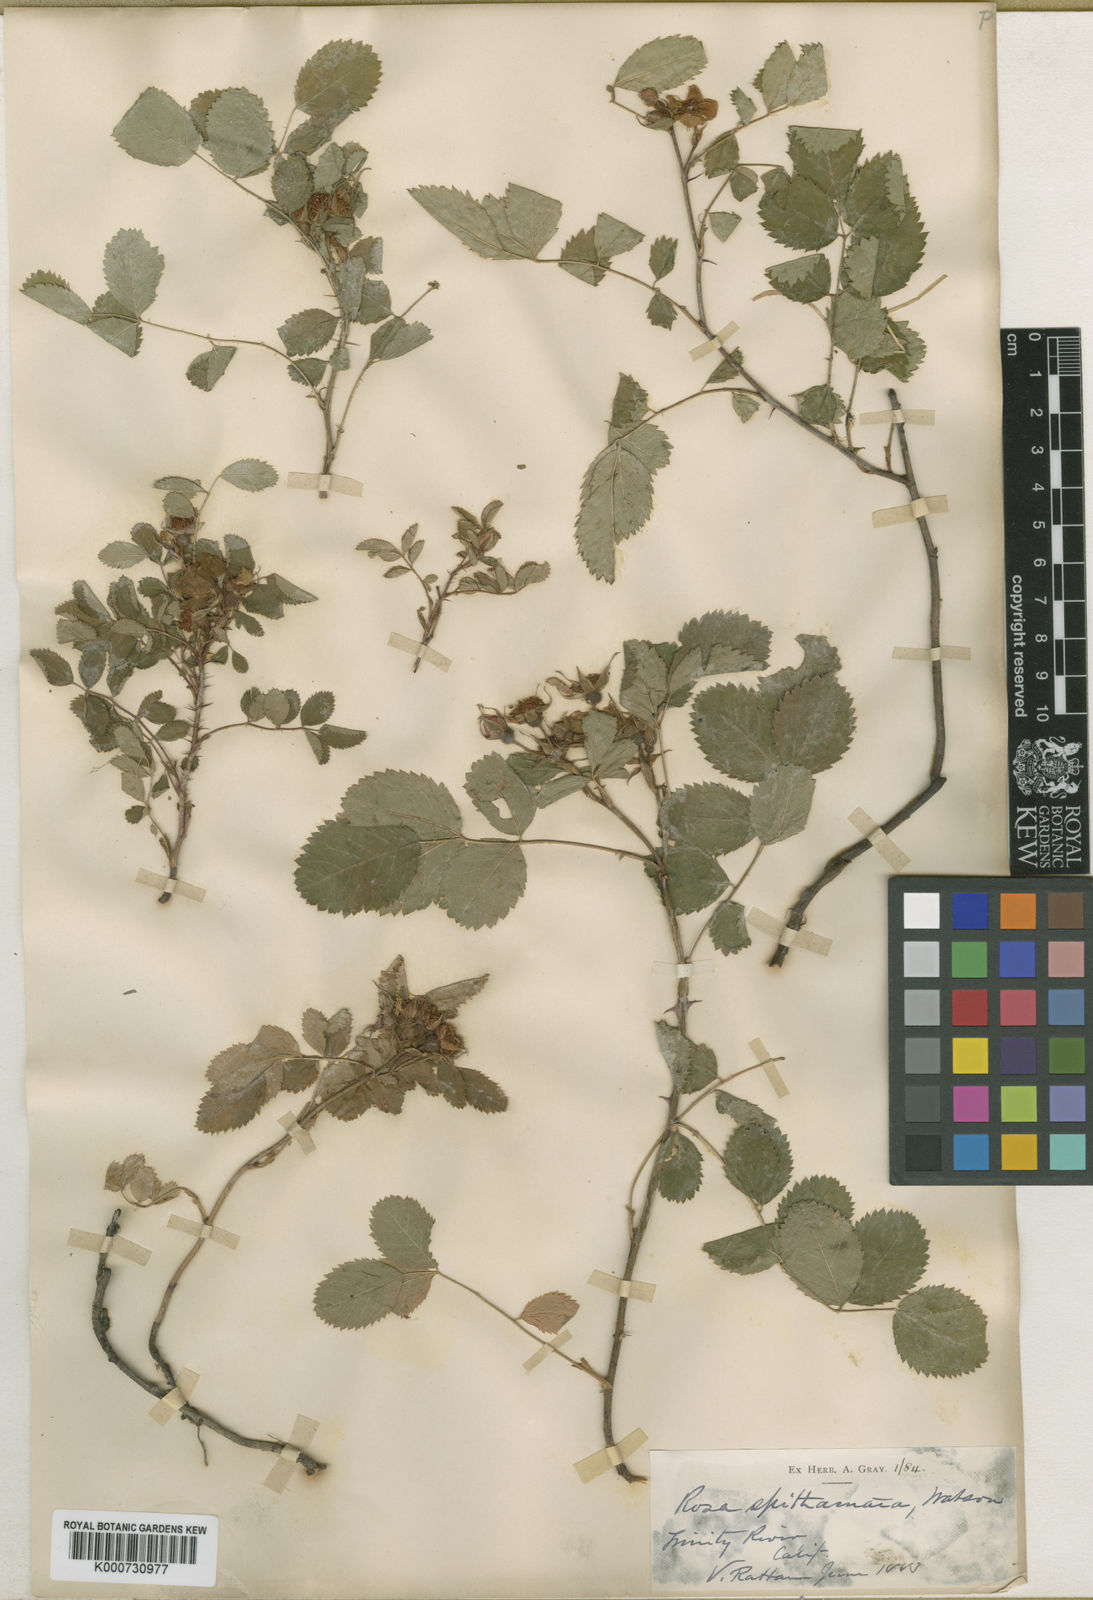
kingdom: Plantae
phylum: Tracheophyta
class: Magnoliopsida
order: Rosales
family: Rosaceae
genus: Rosa
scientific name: Rosa
